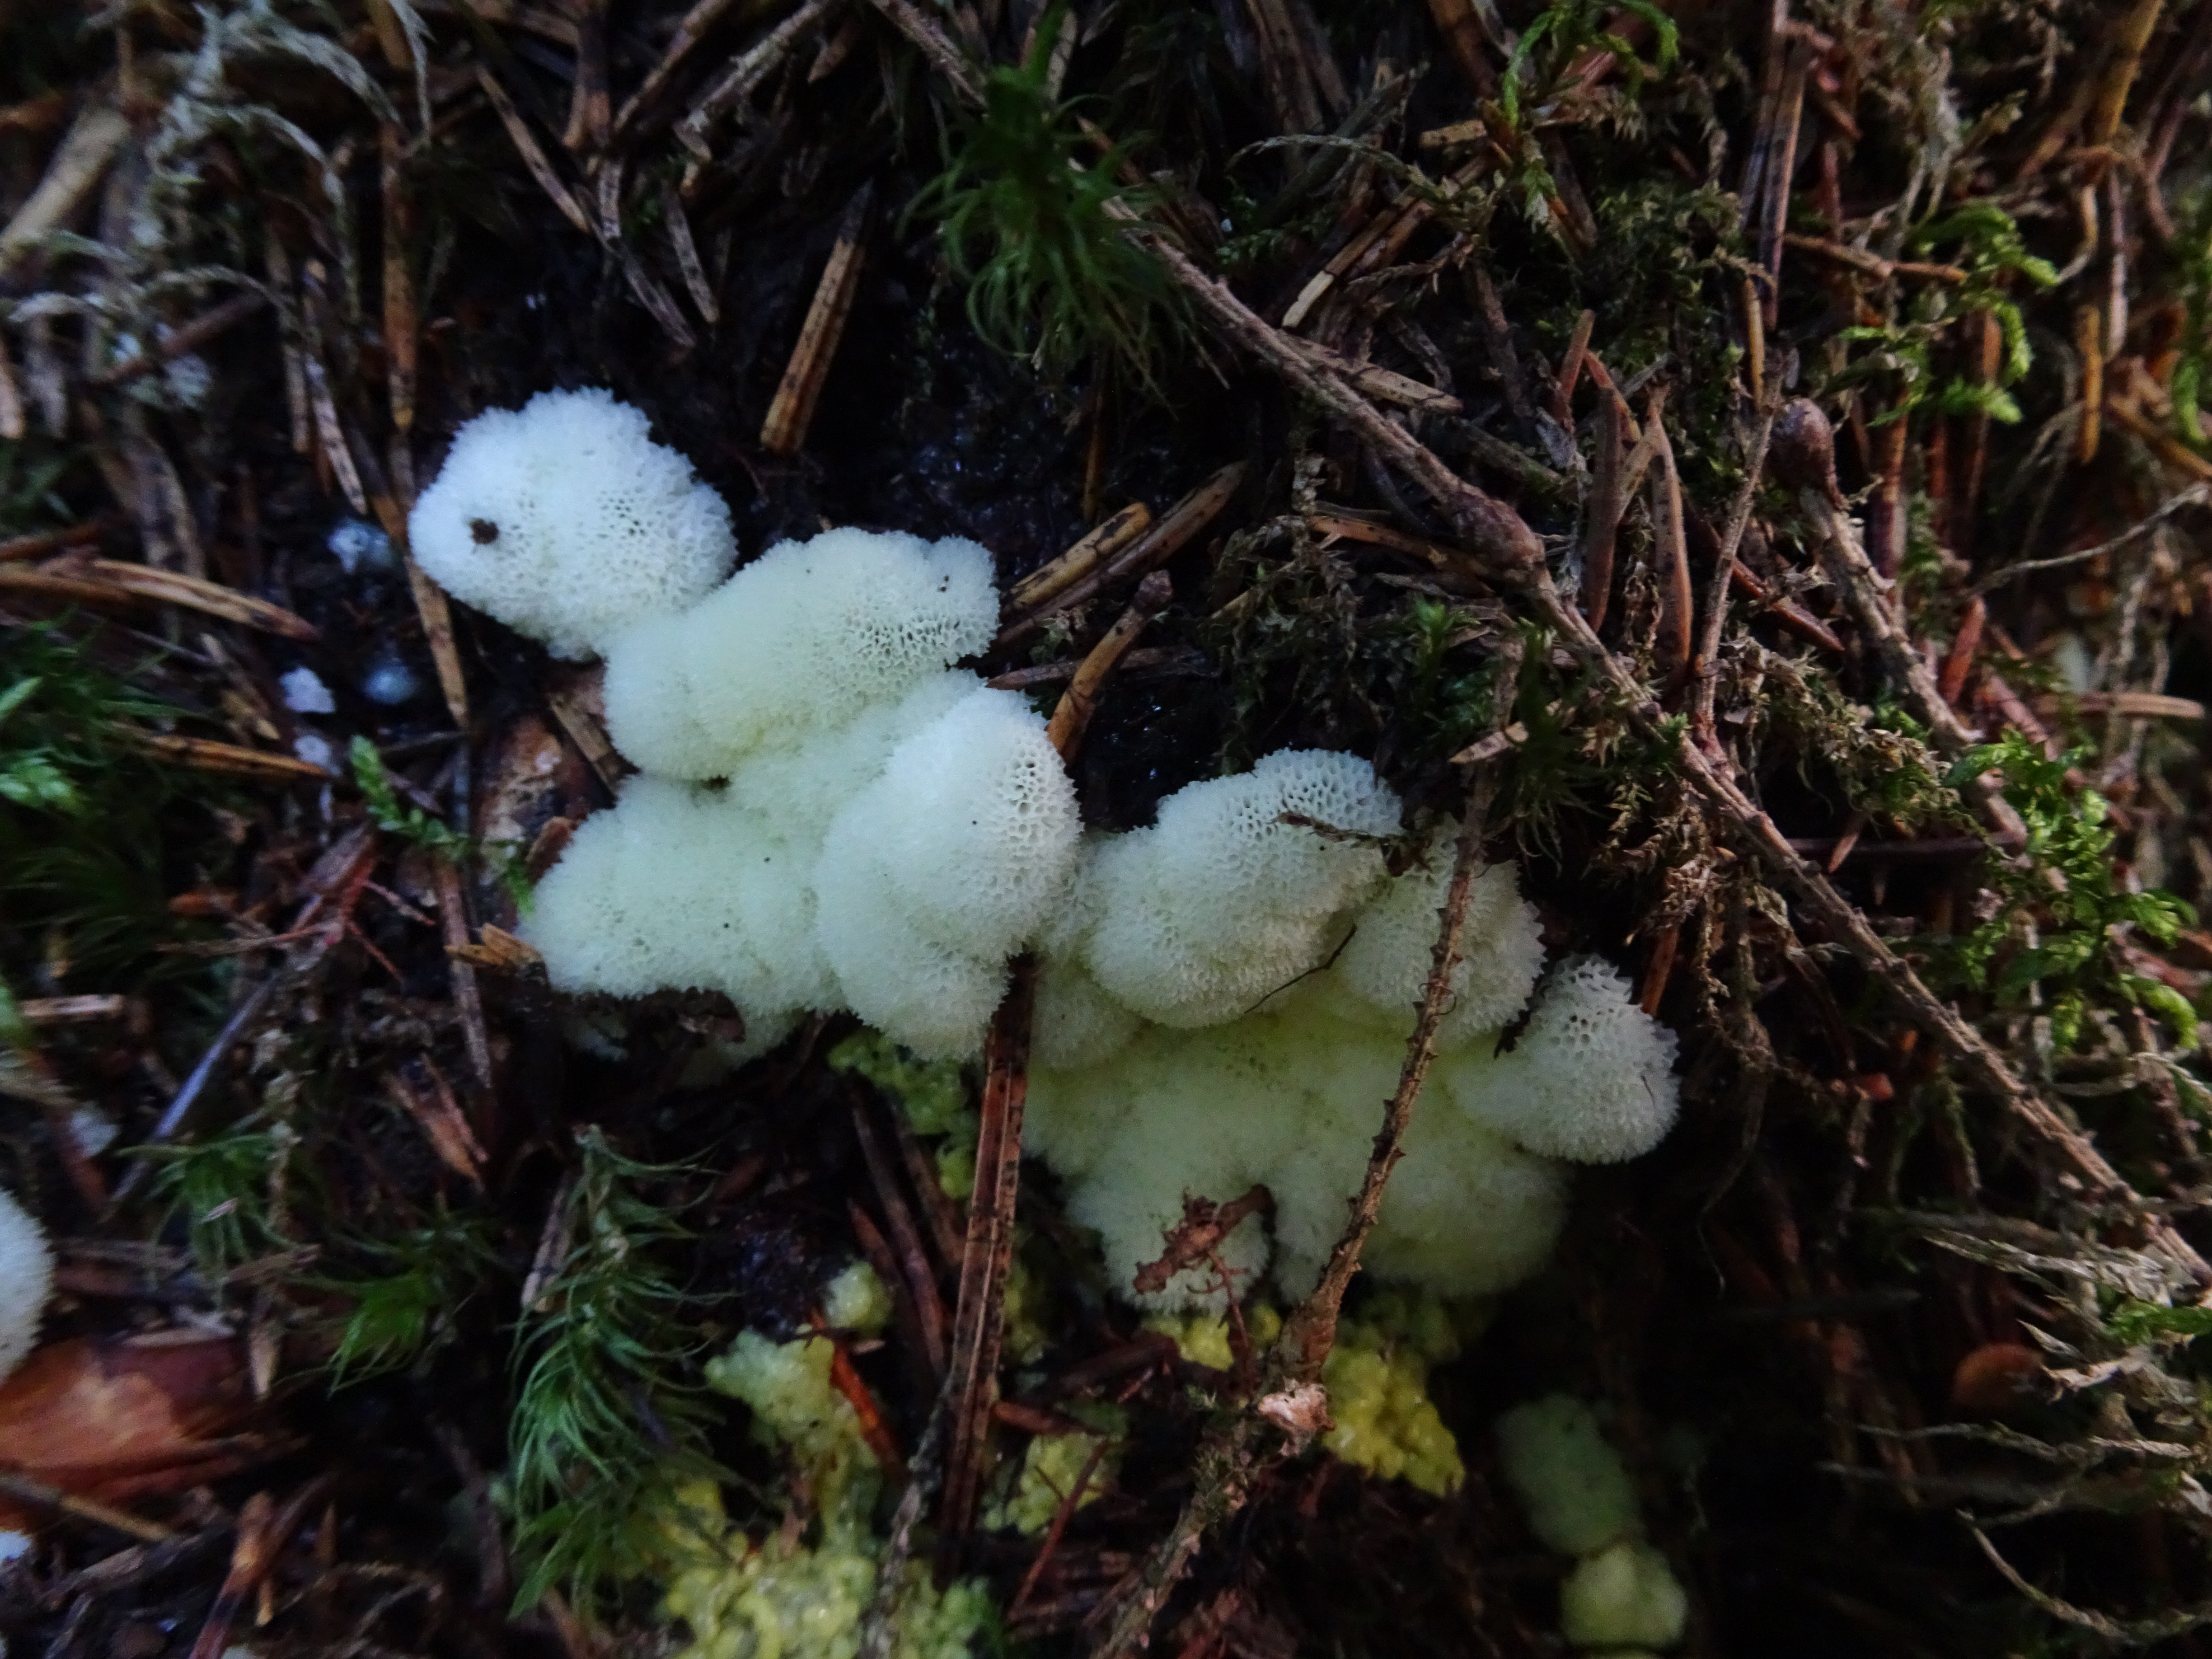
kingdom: Protozoa
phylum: Mycetozoa
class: Protosteliomycetes
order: Ceratiomyxales
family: Ceratiomyxaceae
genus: Ceratiomyxa
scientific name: Ceratiomyxa fruticulosa
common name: Honeycomb coral slime mold
